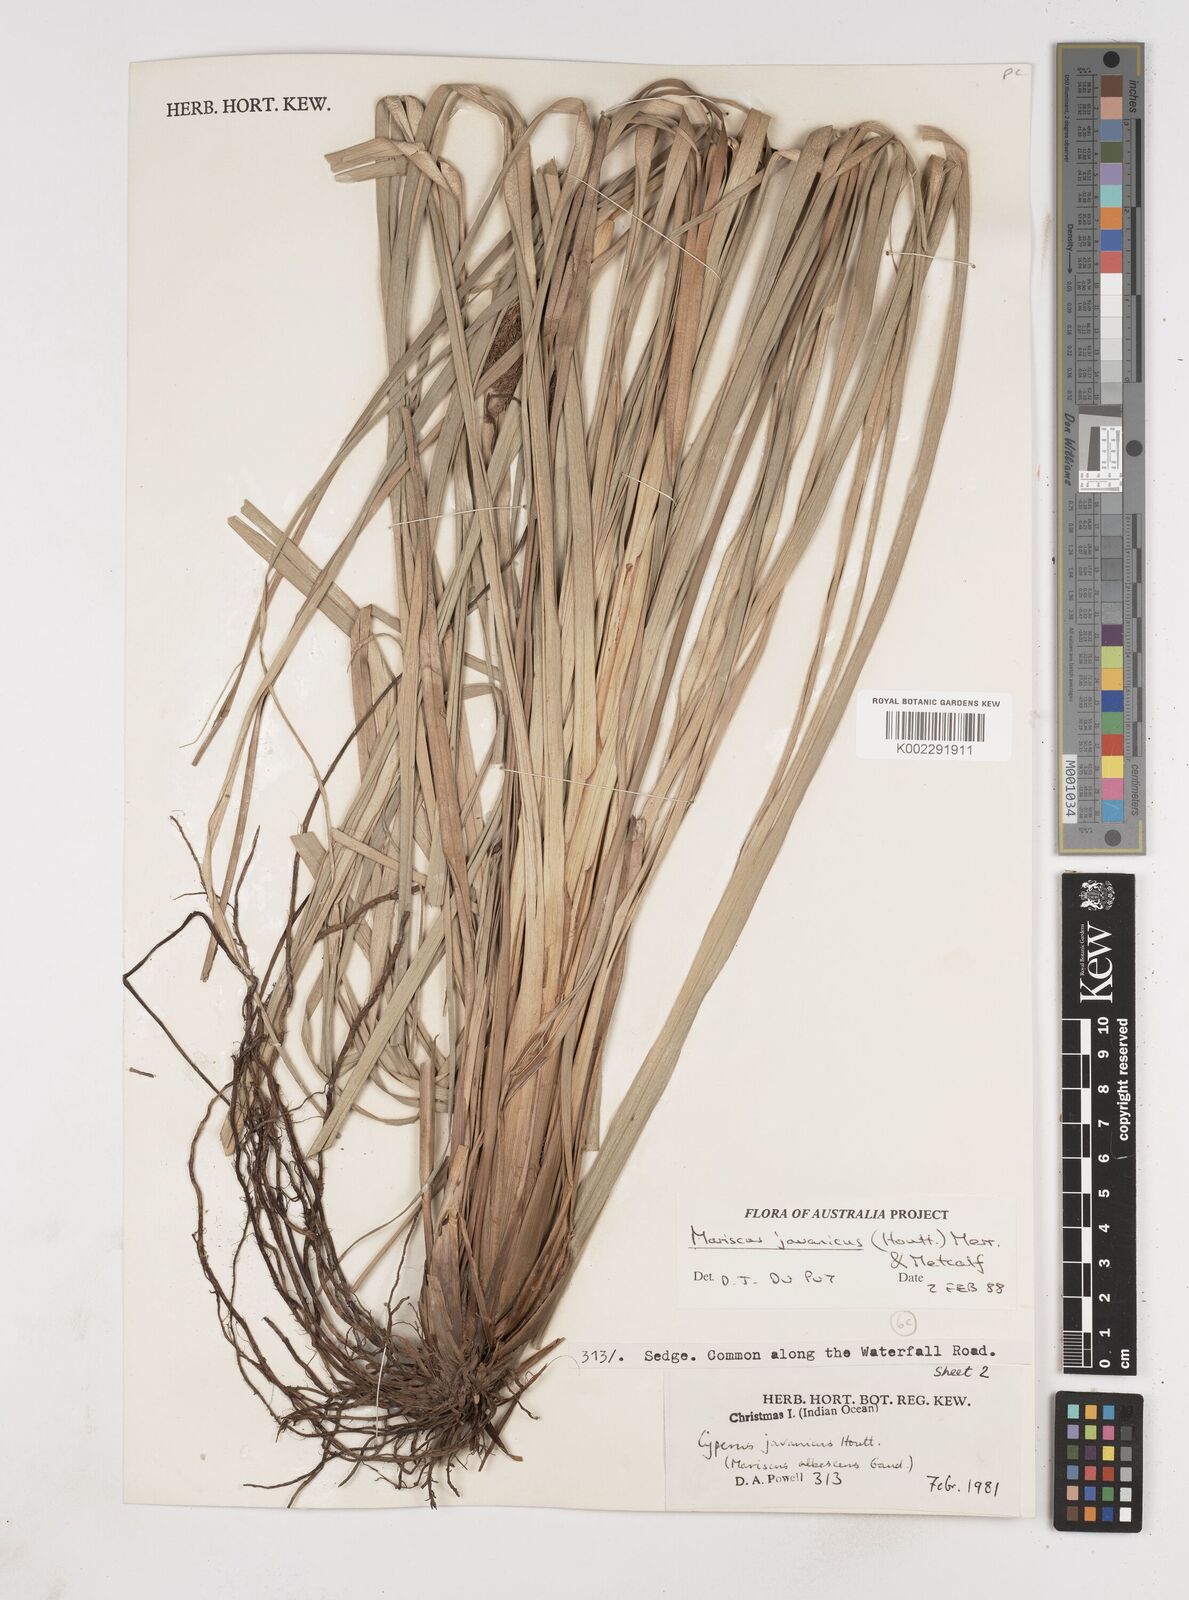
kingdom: Plantae
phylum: Tracheophyta
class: Liliopsida
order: Poales
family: Cyperaceae
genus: Cyperus
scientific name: Cyperus javanicus
